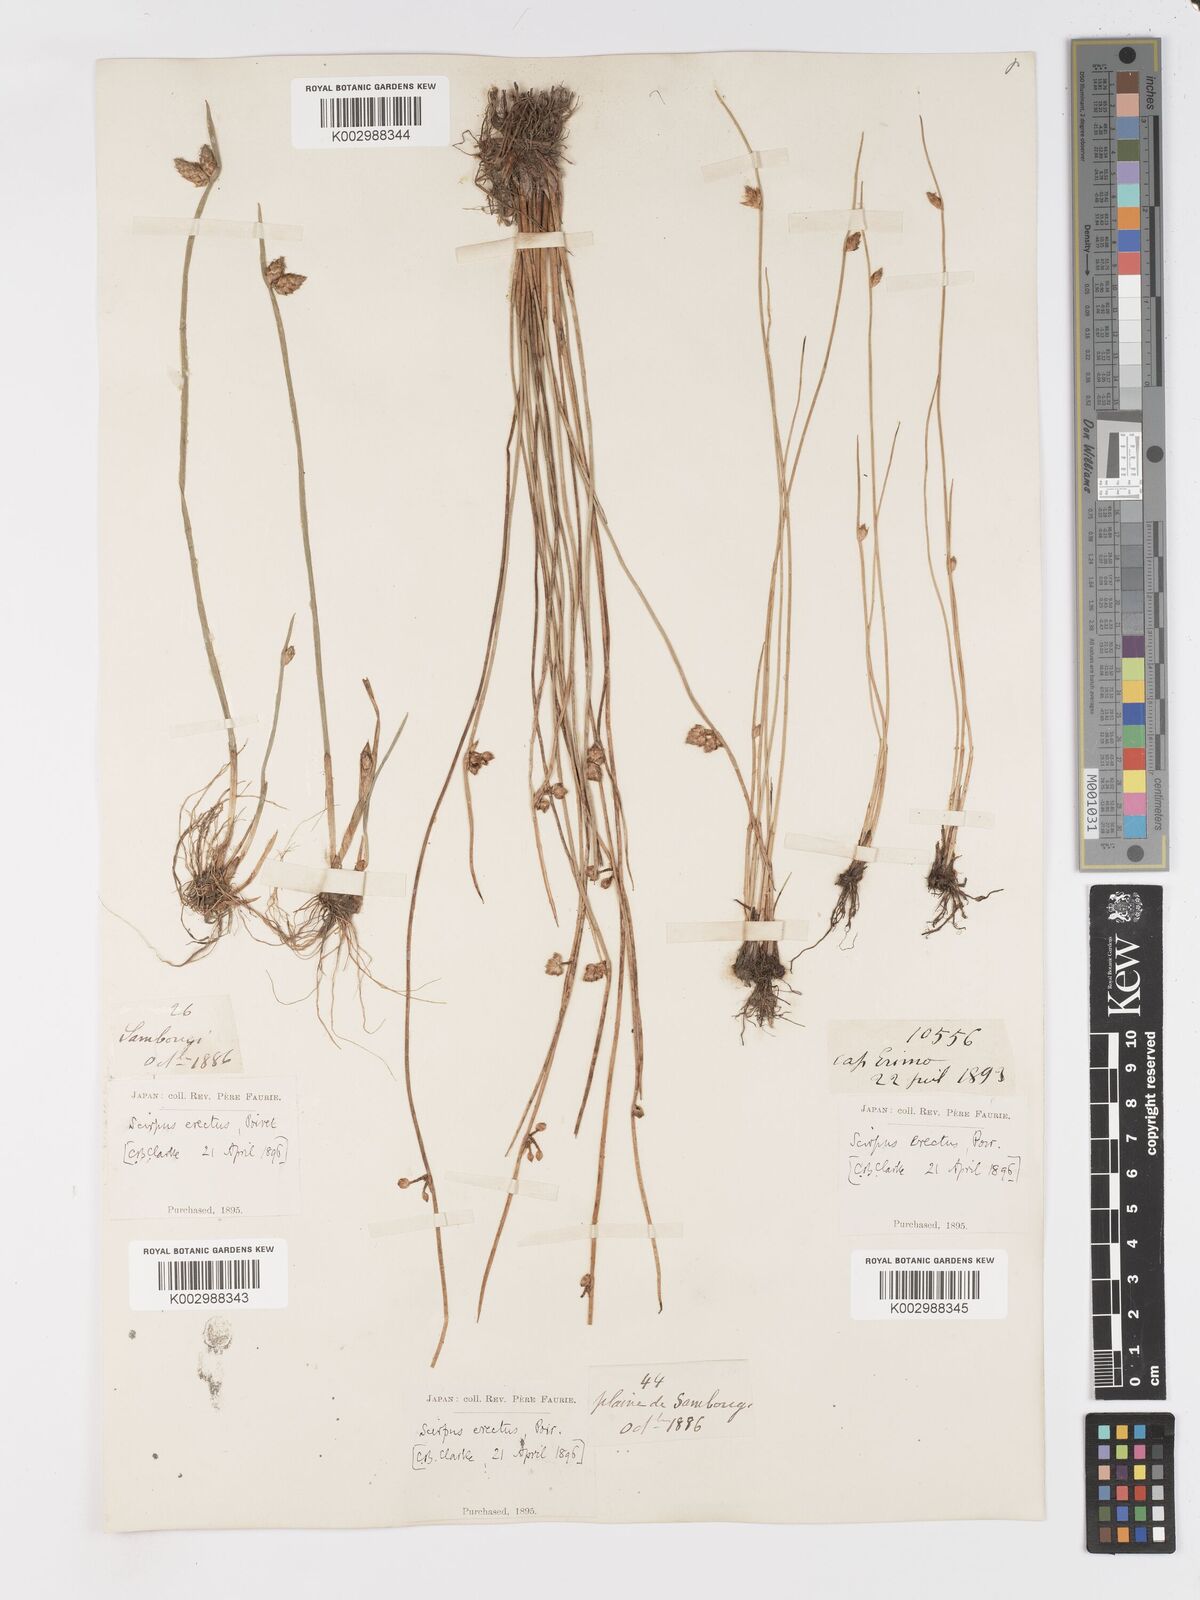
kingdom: Plantae
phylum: Tracheophyta
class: Liliopsida
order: Poales
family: Cyperaceae
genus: Schoenoplectiella
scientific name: Schoenoplectiella juncoides
